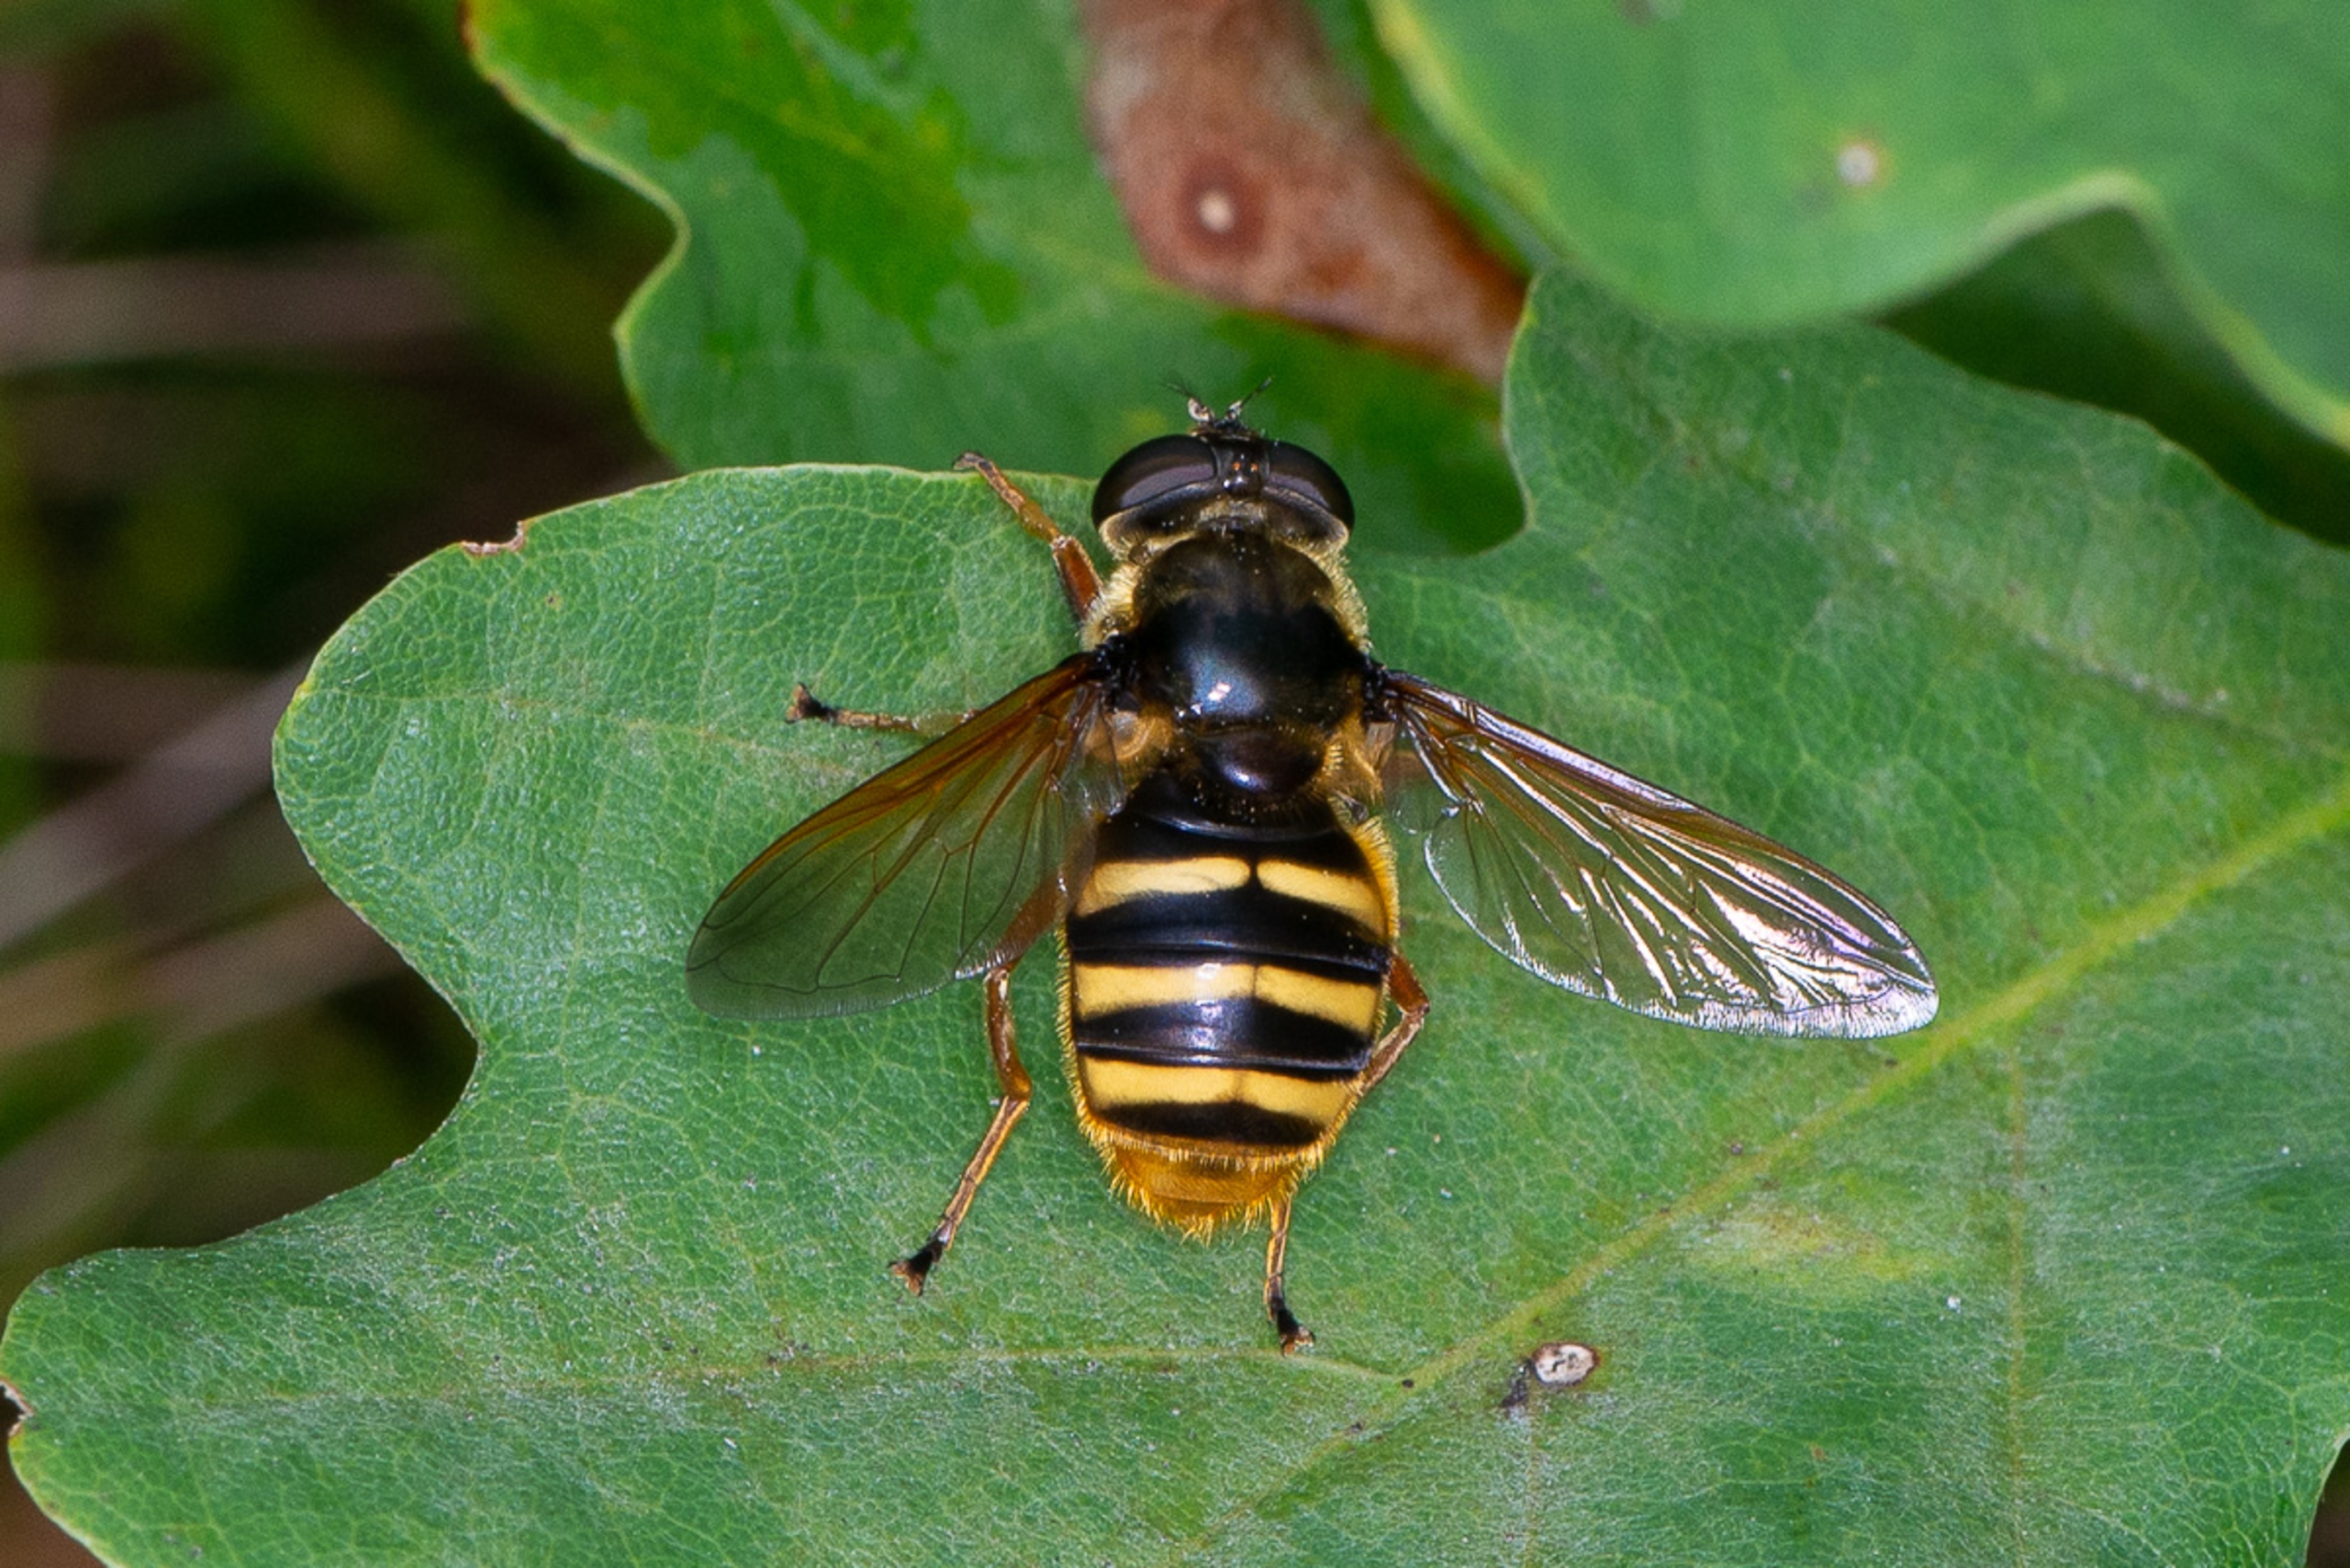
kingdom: Animalia
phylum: Arthropoda
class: Insecta
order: Diptera
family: Syrphidae
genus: Sericomyia
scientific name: Sericomyia silentis
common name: Tørve-silkesvirreflue
